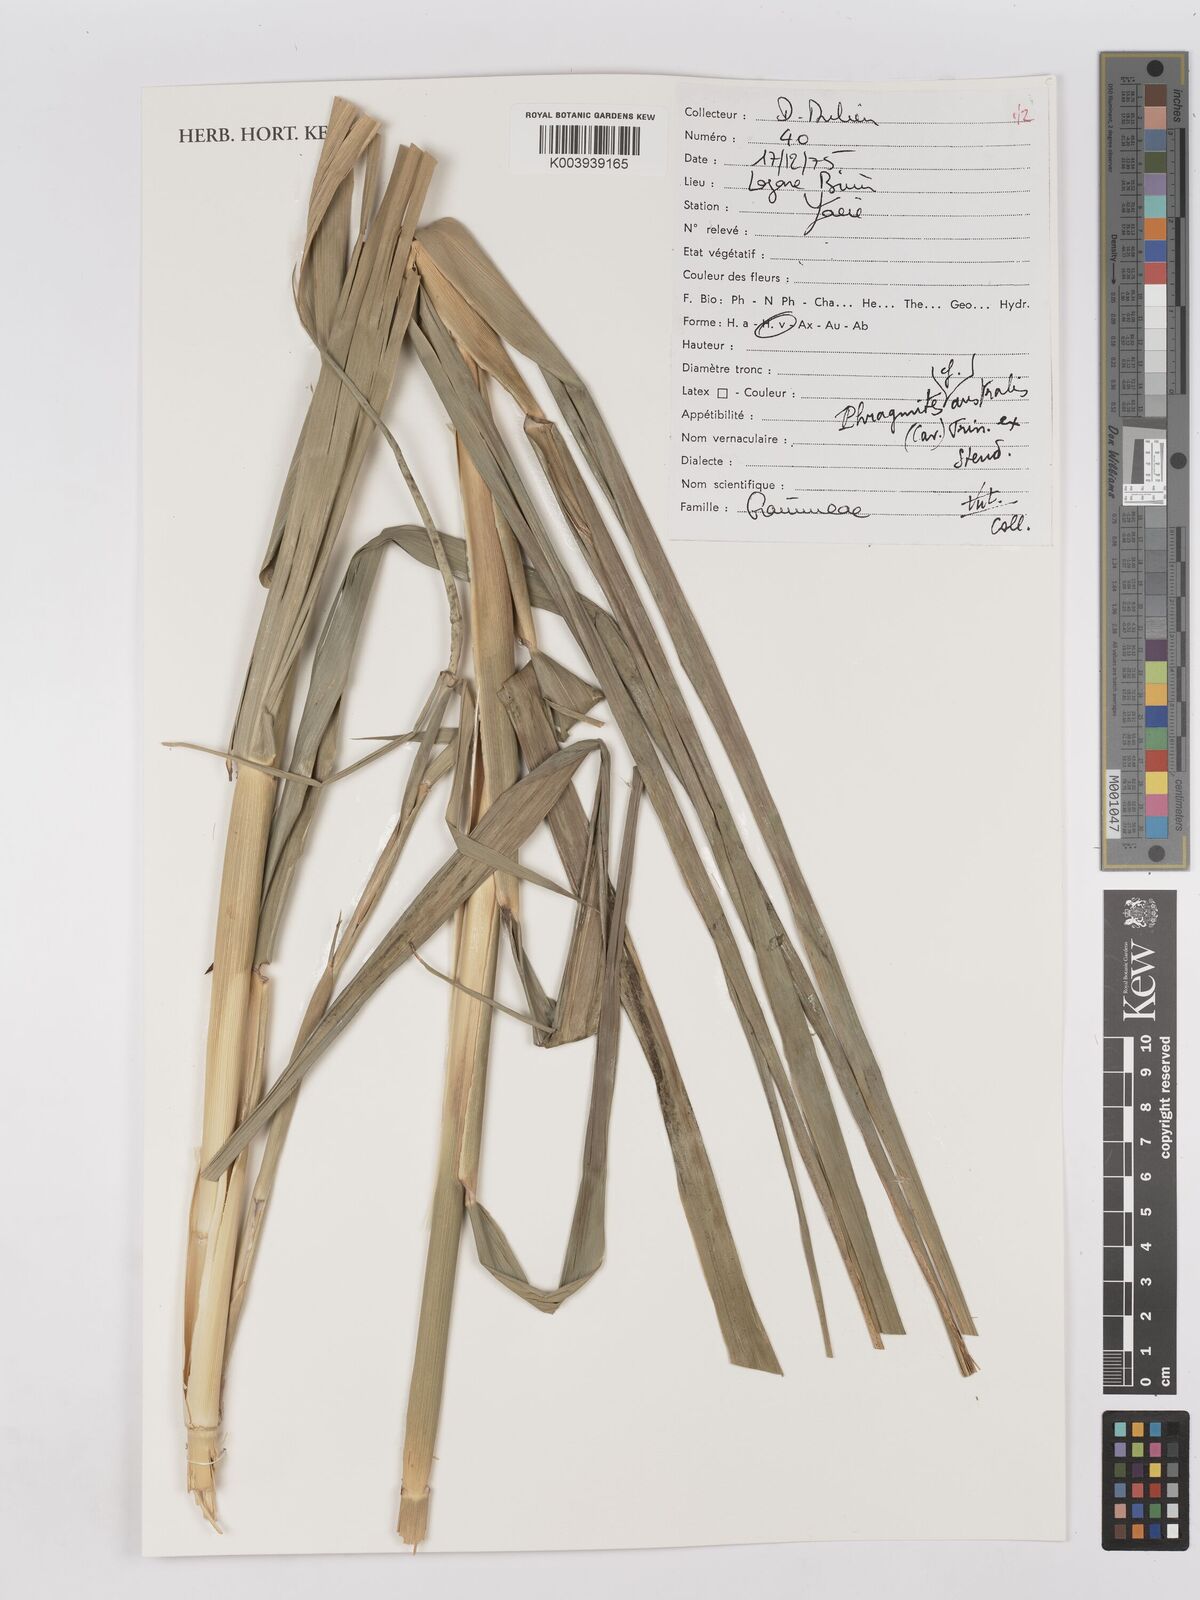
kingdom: Plantae
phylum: Tracheophyta
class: Liliopsida
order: Poales
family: Poaceae
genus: Phragmites
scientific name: Phragmites australis
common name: Common reed
